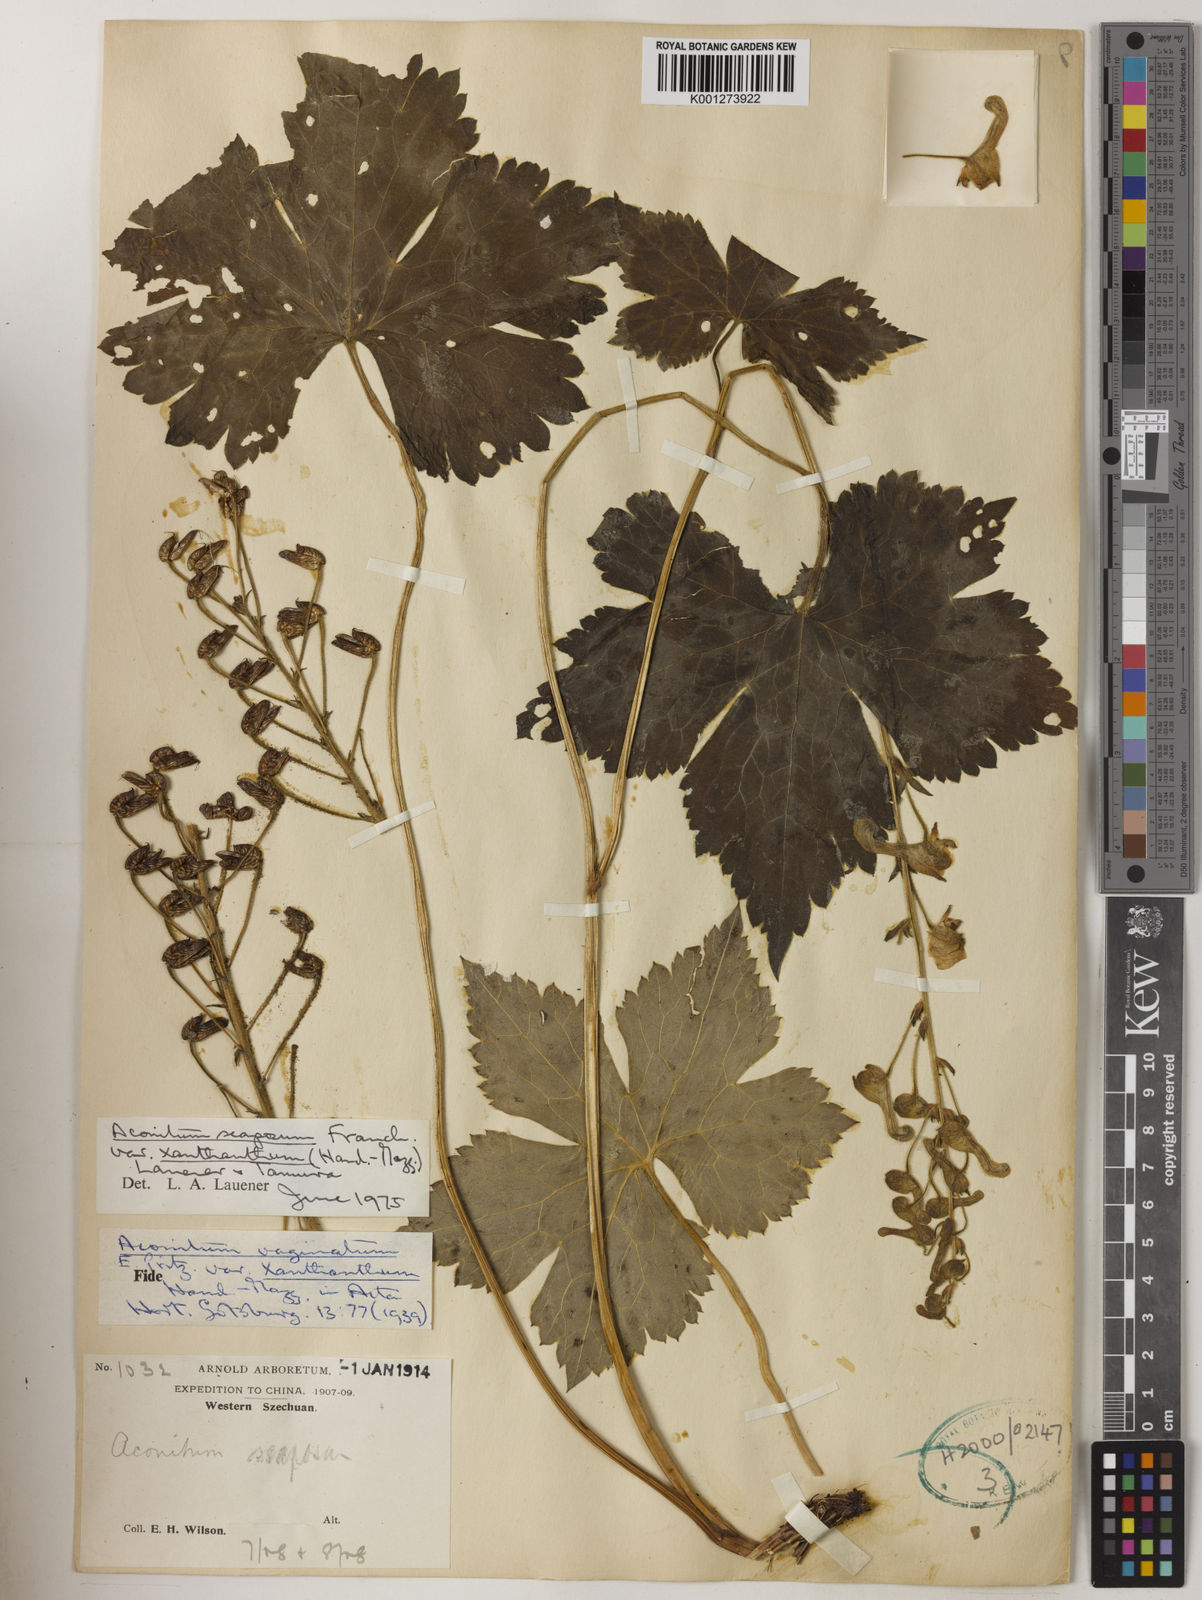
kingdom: Plantae
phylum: Tracheophyta
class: Magnoliopsida
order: Ranunculales
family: Ranunculaceae
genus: Aconitum
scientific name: Aconitum
